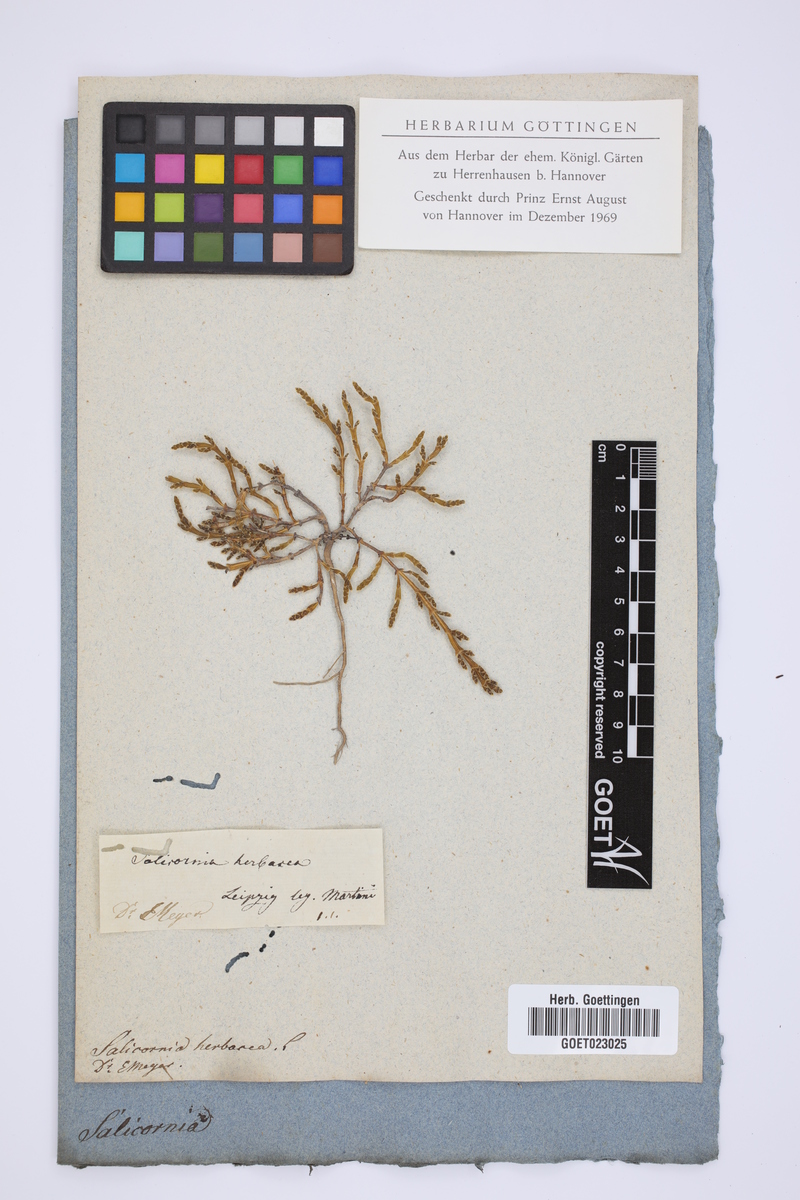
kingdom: Plantae
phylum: Tracheophyta
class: Magnoliopsida
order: Caryophyllales
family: Amaranthaceae
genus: Salicornia
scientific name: Salicornia europaea
